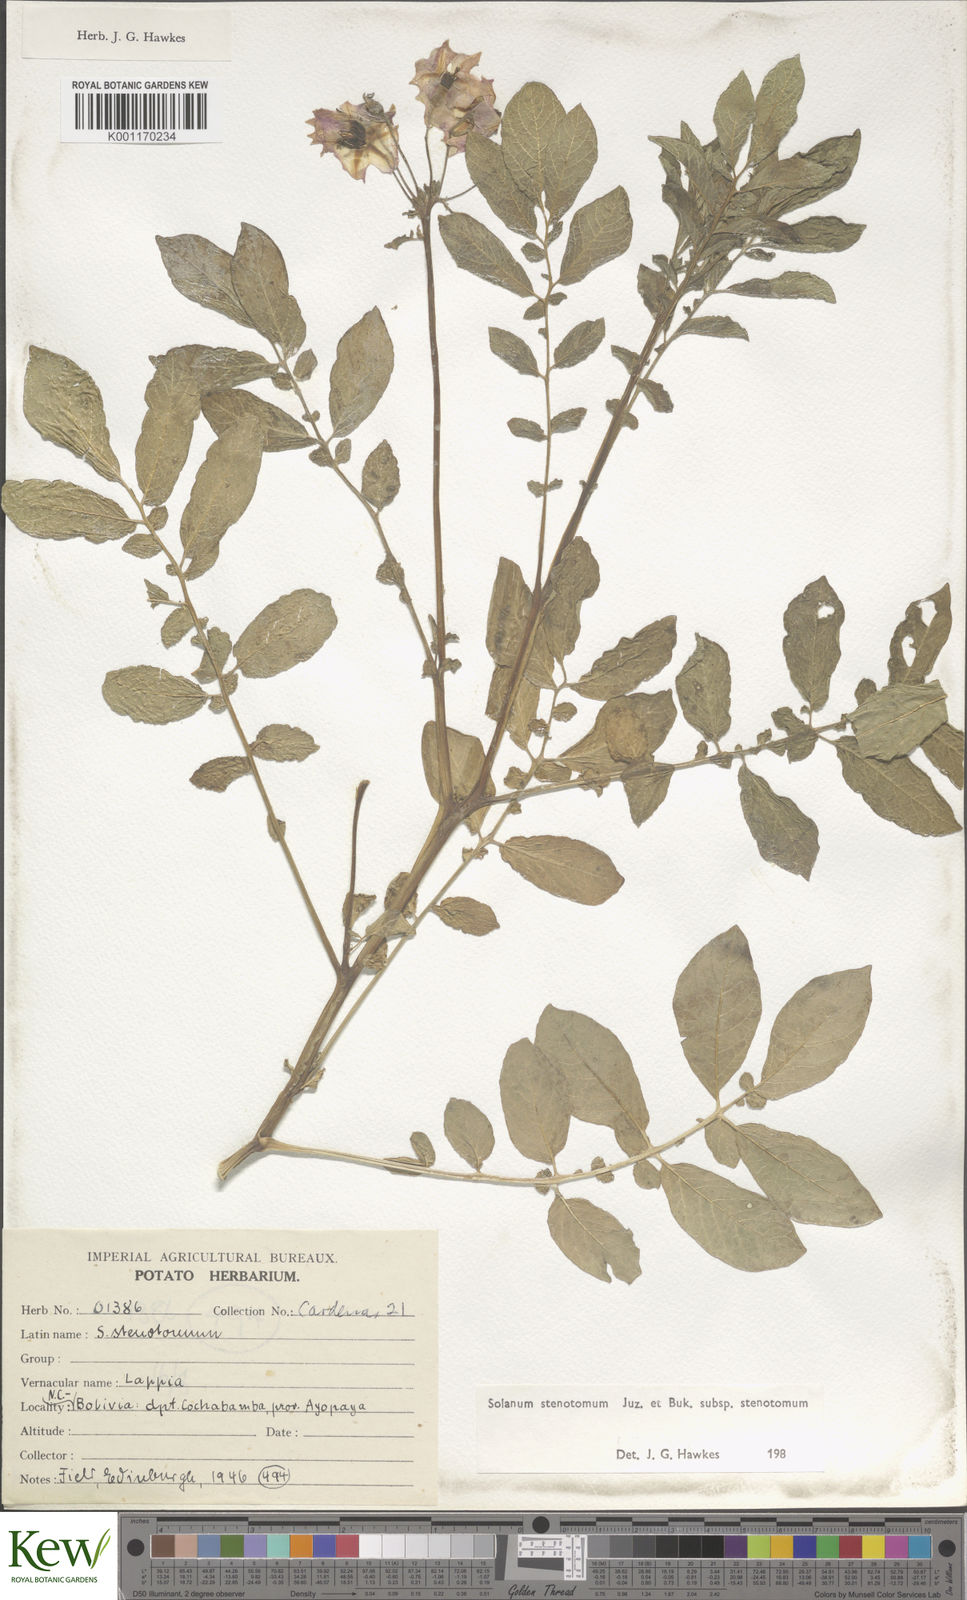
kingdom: Plantae
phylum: Tracheophyta
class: Magnoliopsida
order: Solanales
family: Solanaceae
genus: Solanum
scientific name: Solanum tuberosum
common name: Potato
